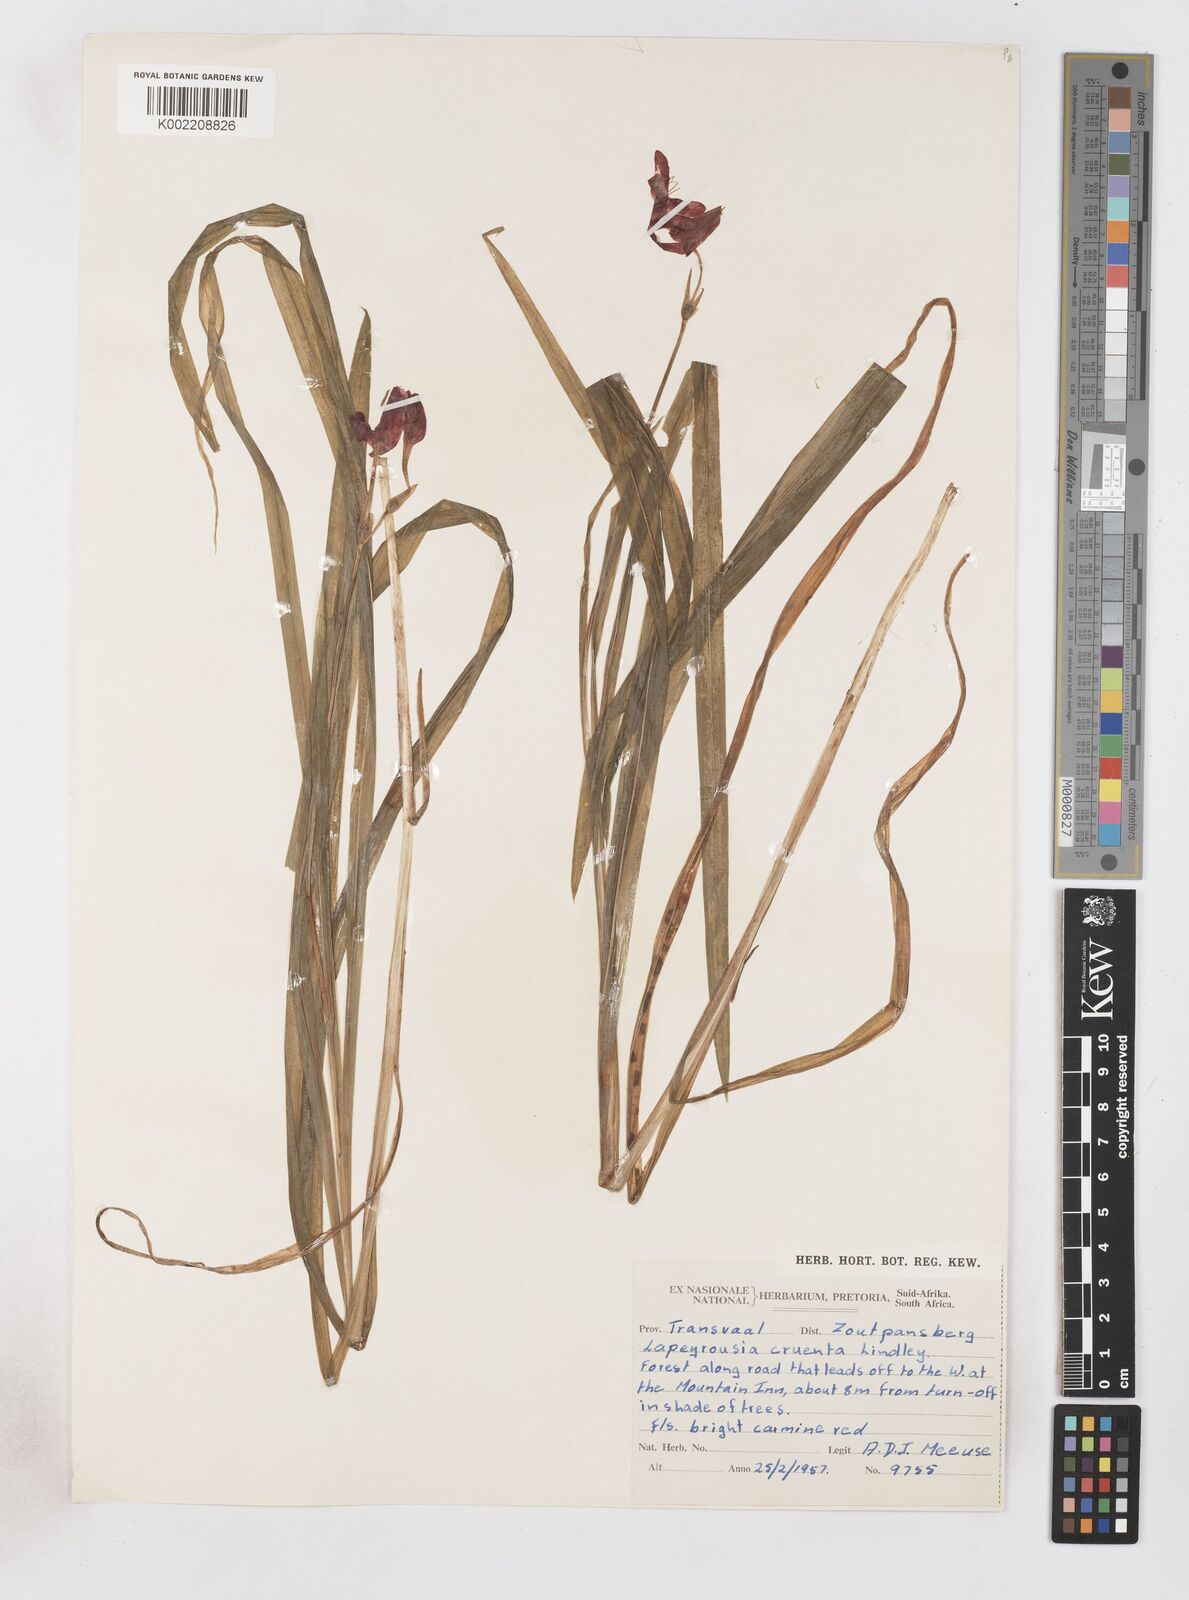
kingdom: Plantae
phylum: Tracheophyta
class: Liliopsida
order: Asparagales
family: Iridaceae
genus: Freesia
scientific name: Freesia grandiflora
